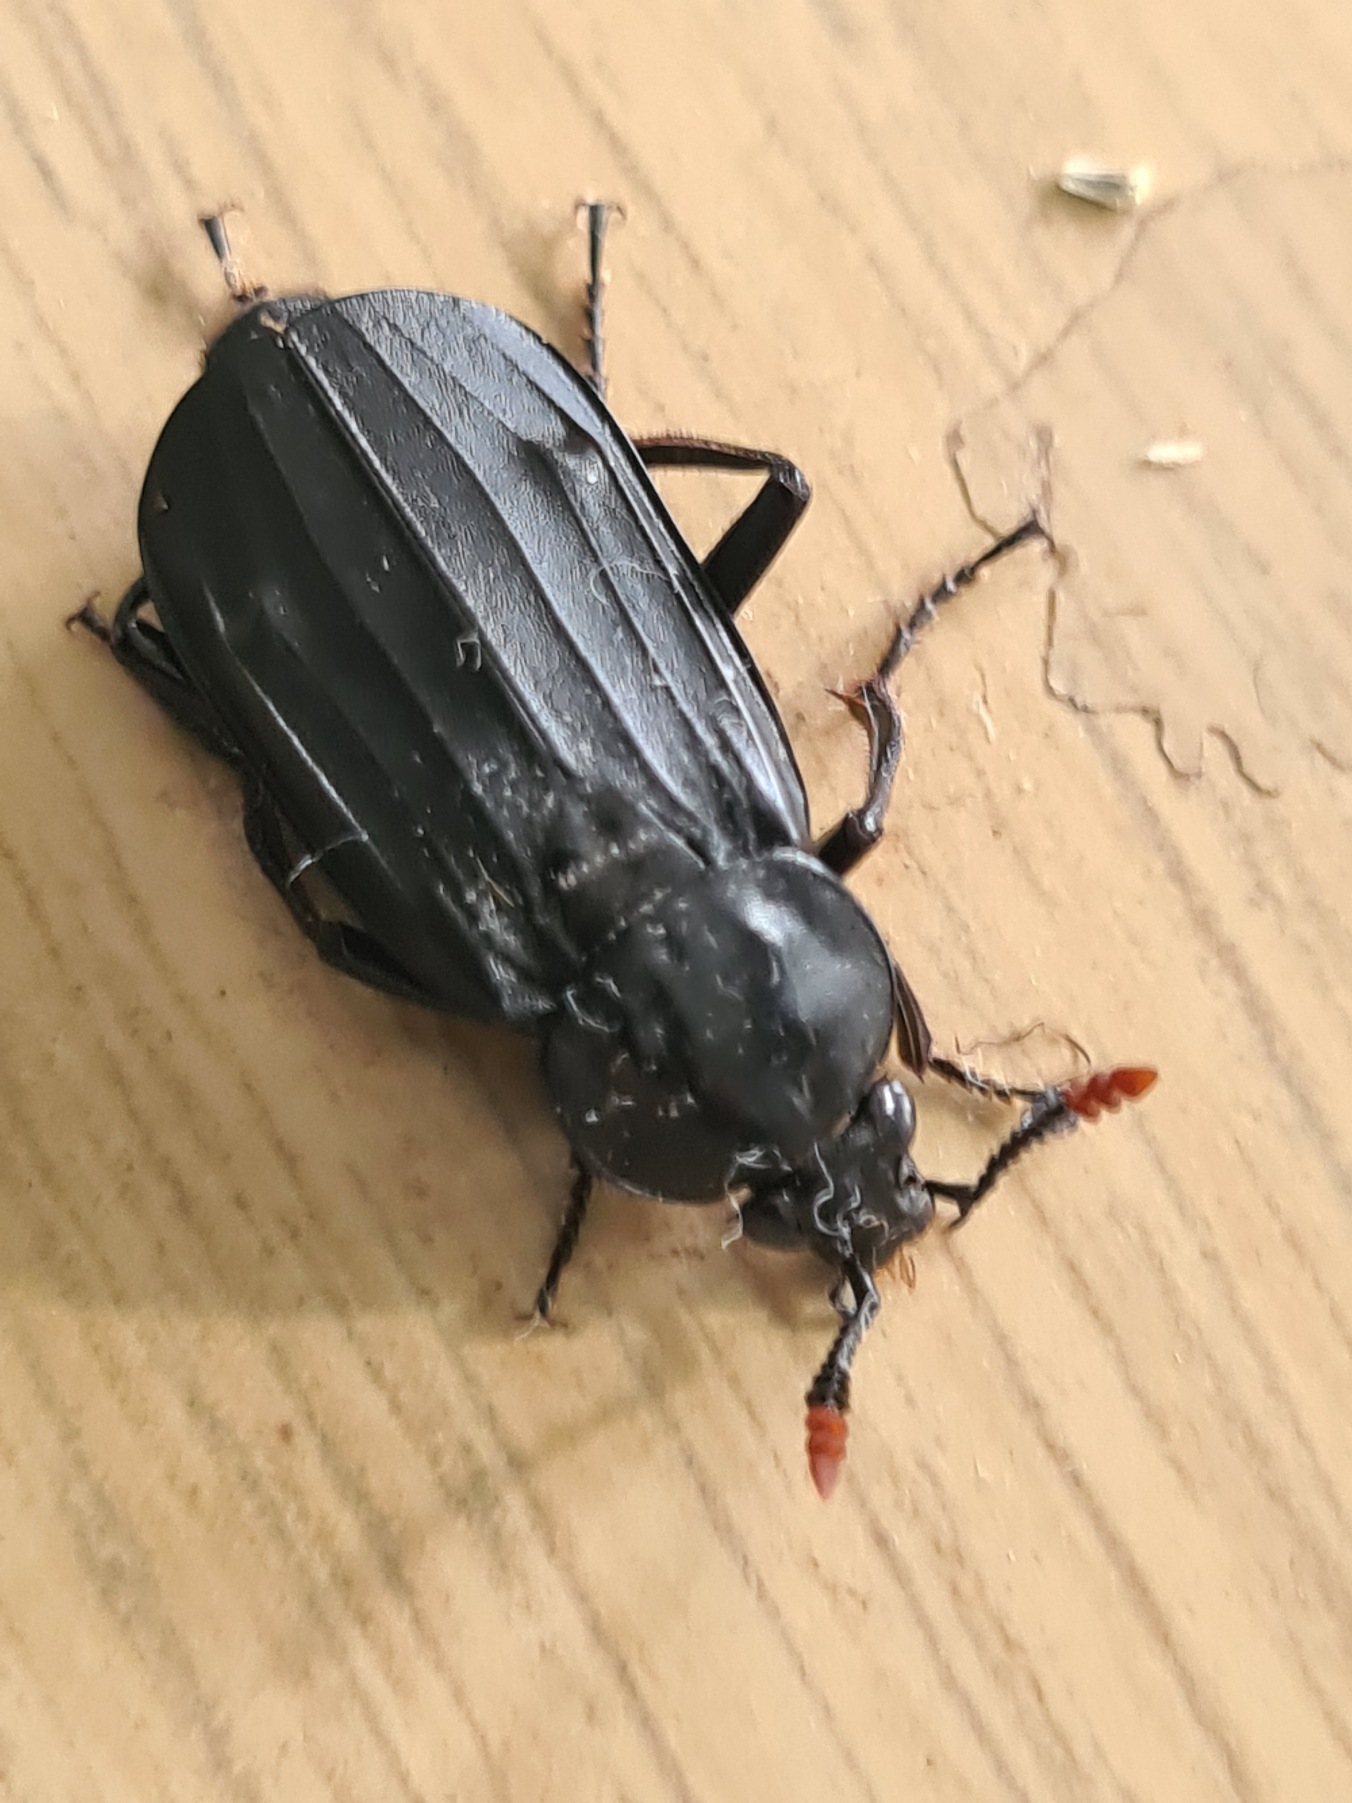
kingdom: Animalia
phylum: Arthropoda
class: Insecta
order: Coleoptera
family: Staphylinidae
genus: Necrodes
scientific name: Necrodes littoralis
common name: Ligrøver
